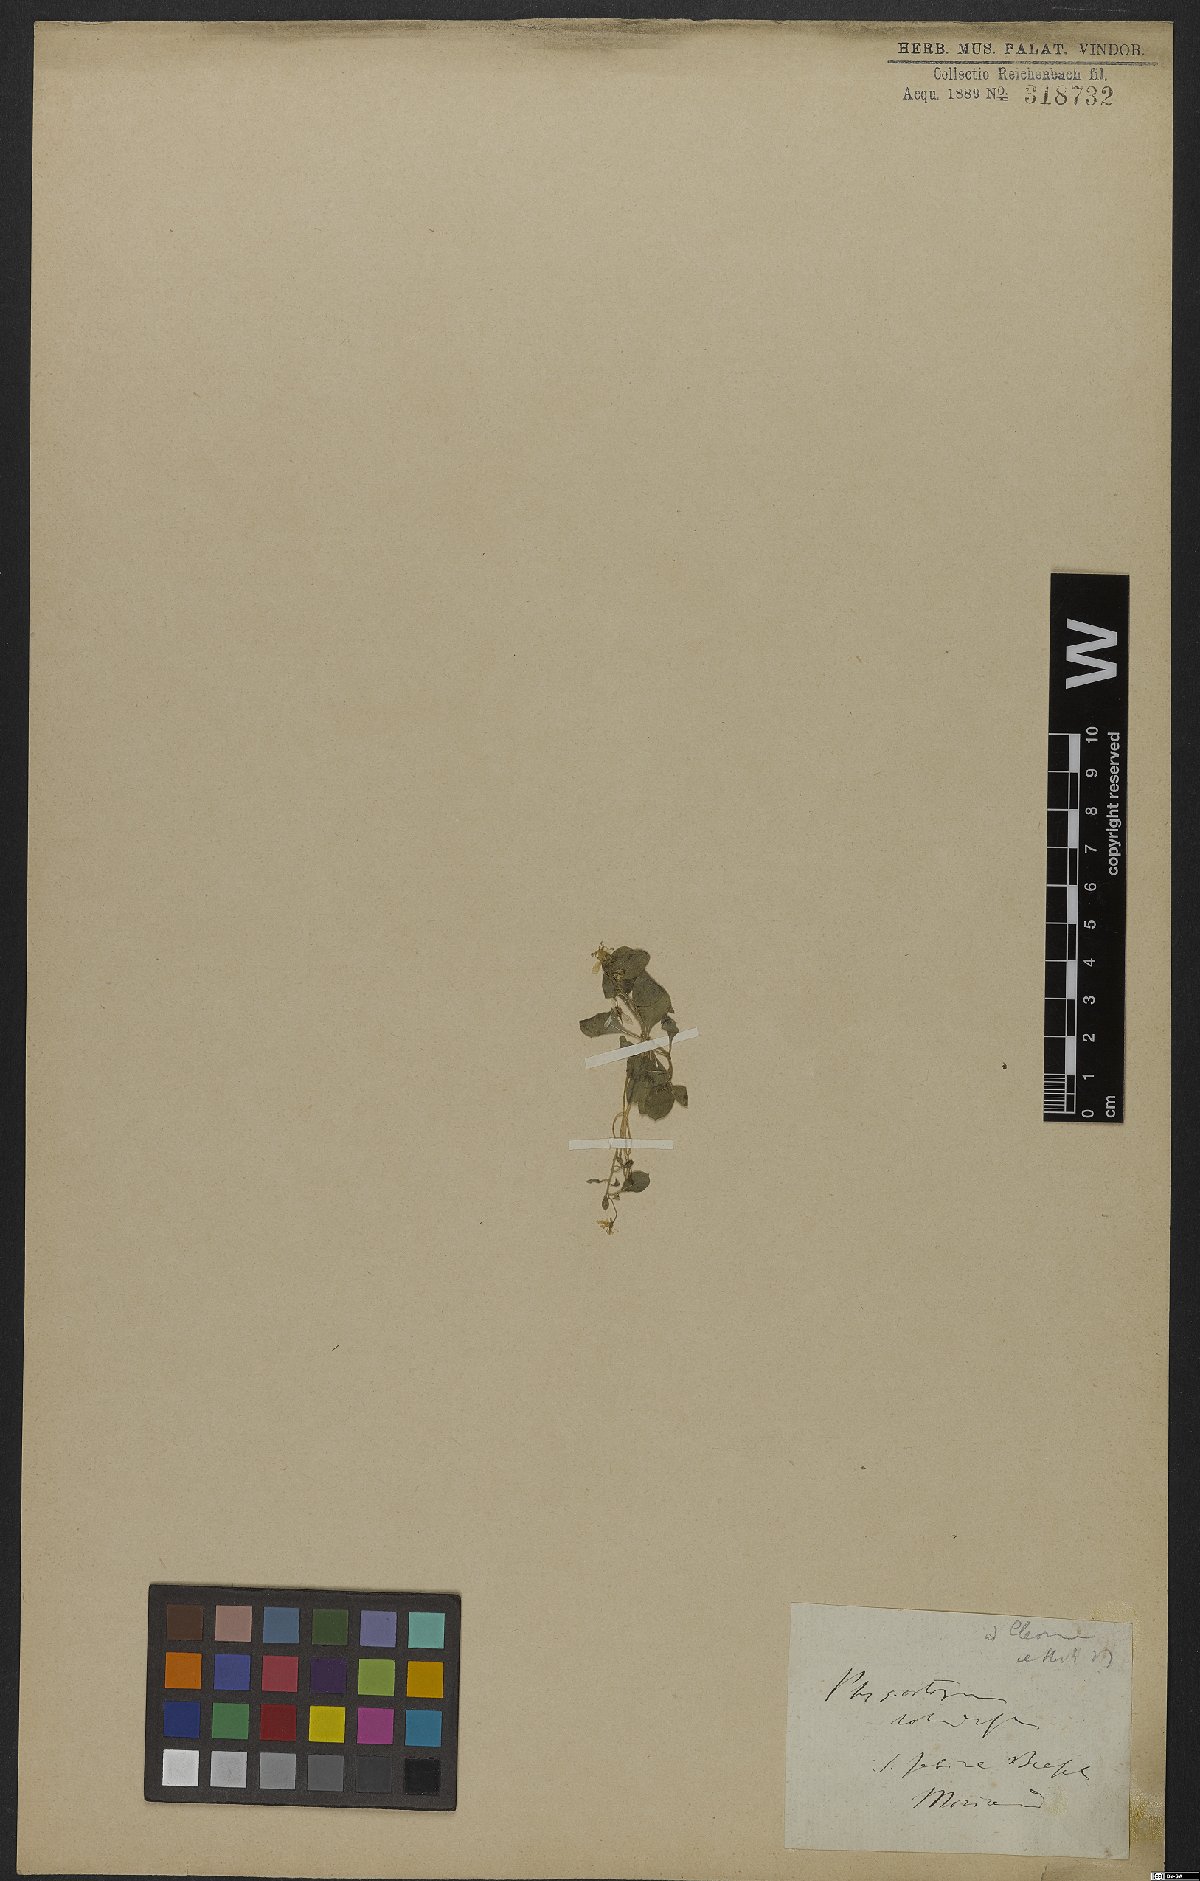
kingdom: Plantae
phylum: Tracheophyta
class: Magnoliopsida
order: Brassicales
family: Cleomaceae
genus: Physostemon
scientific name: Physostemon rotundifolius
